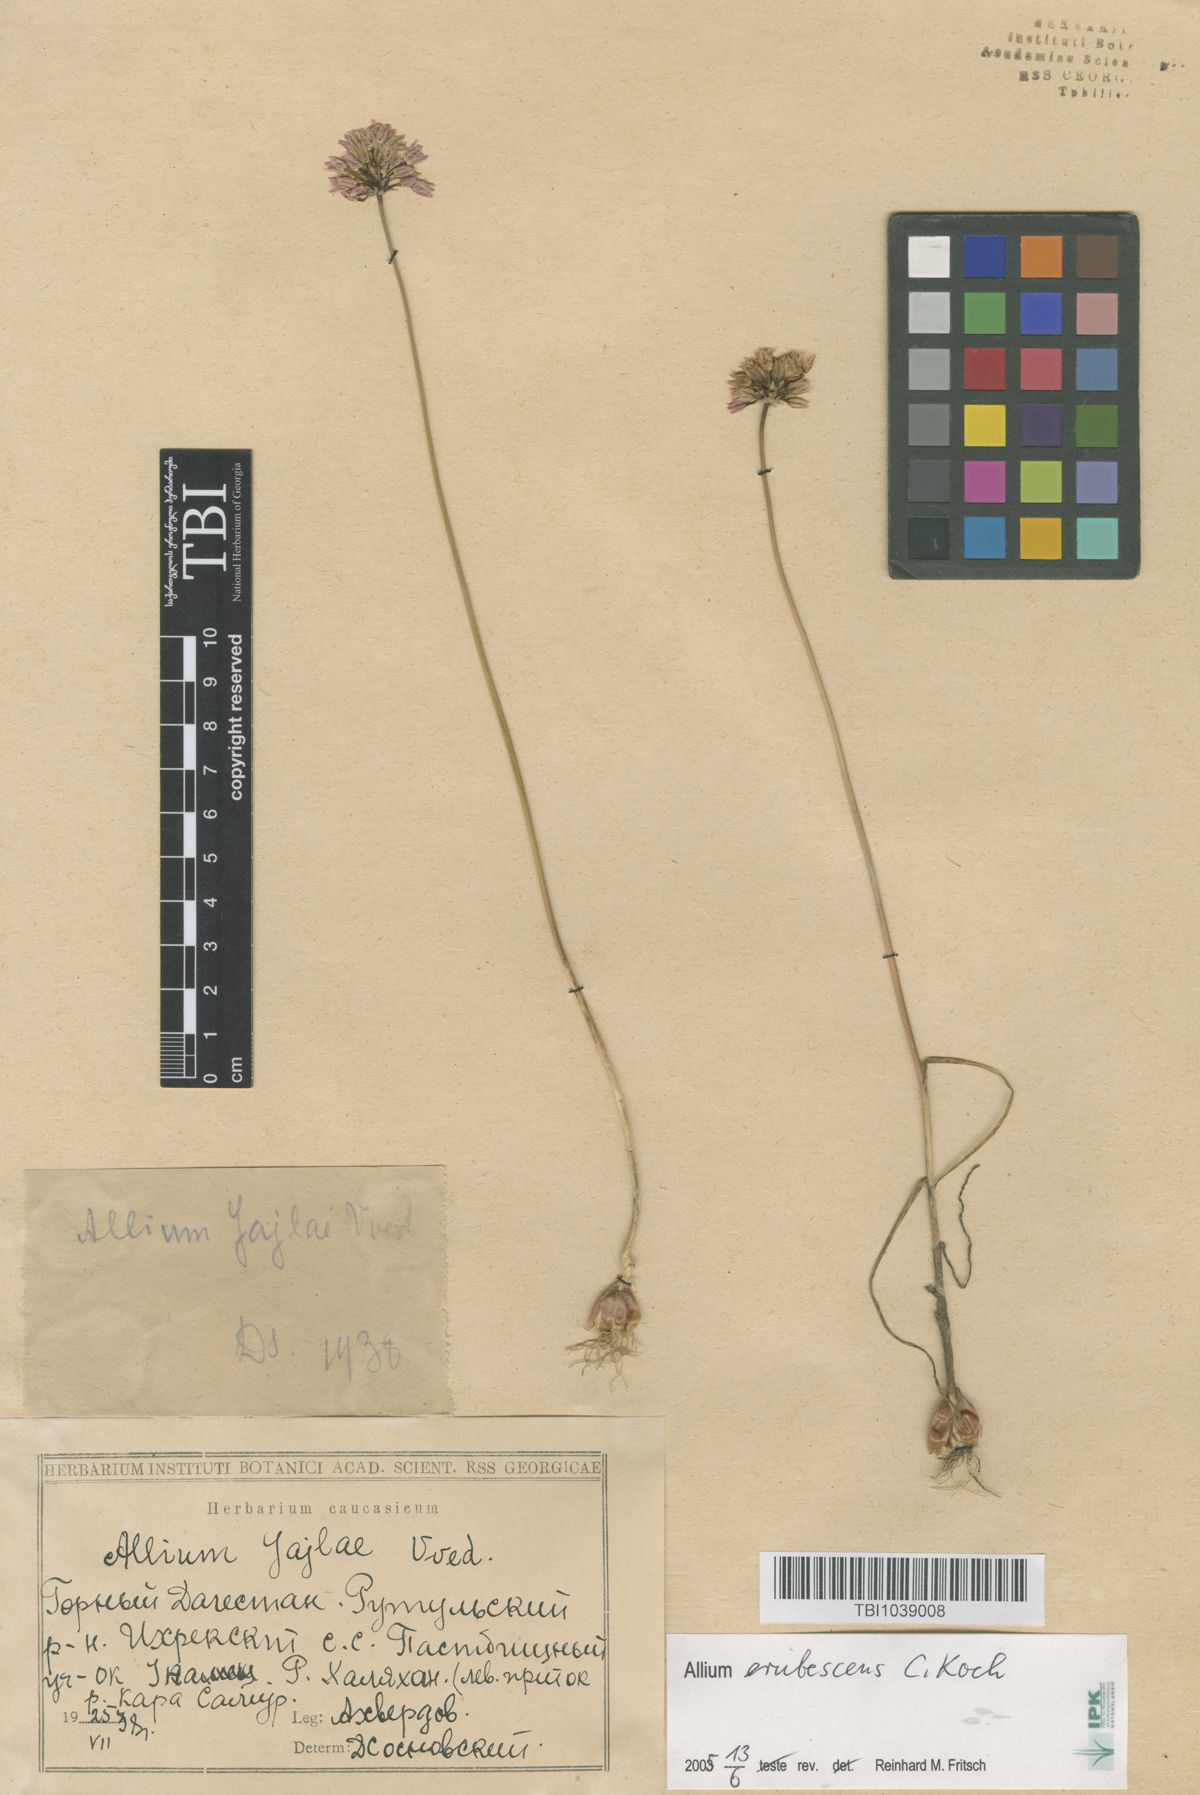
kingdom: Plantae
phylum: Tracheophyta
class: Liliopsida
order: Asparagales
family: Amaryllidaceae
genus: Allium
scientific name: Allium rotundum
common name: Sand leek
